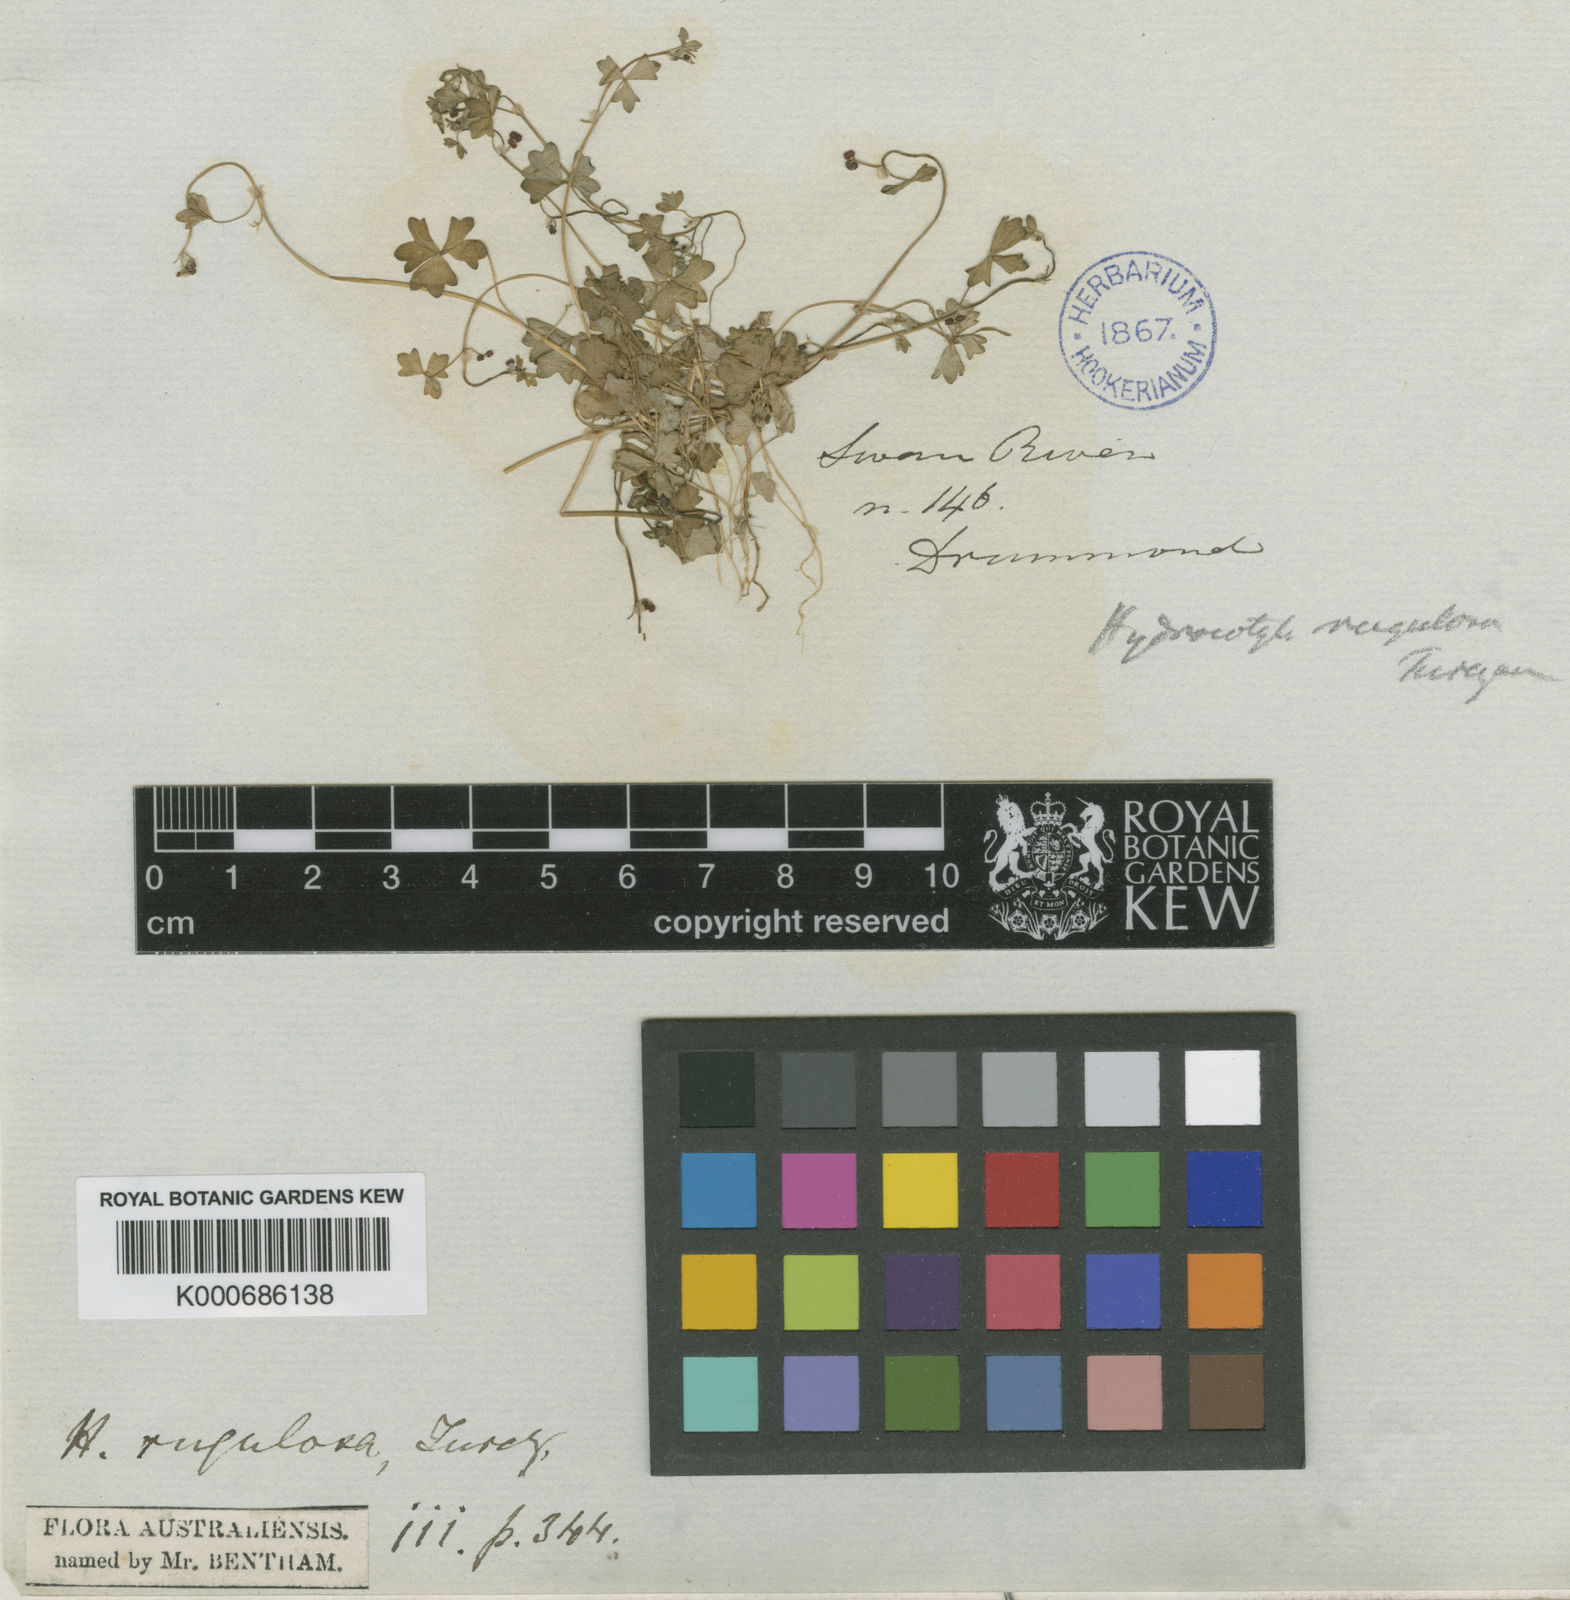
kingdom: Plantae
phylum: Tracheophyta
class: Magnoliopsida
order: Apiales
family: Araliaceae
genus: Hydrocotyle
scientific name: Hydrocotyle rugulosa
